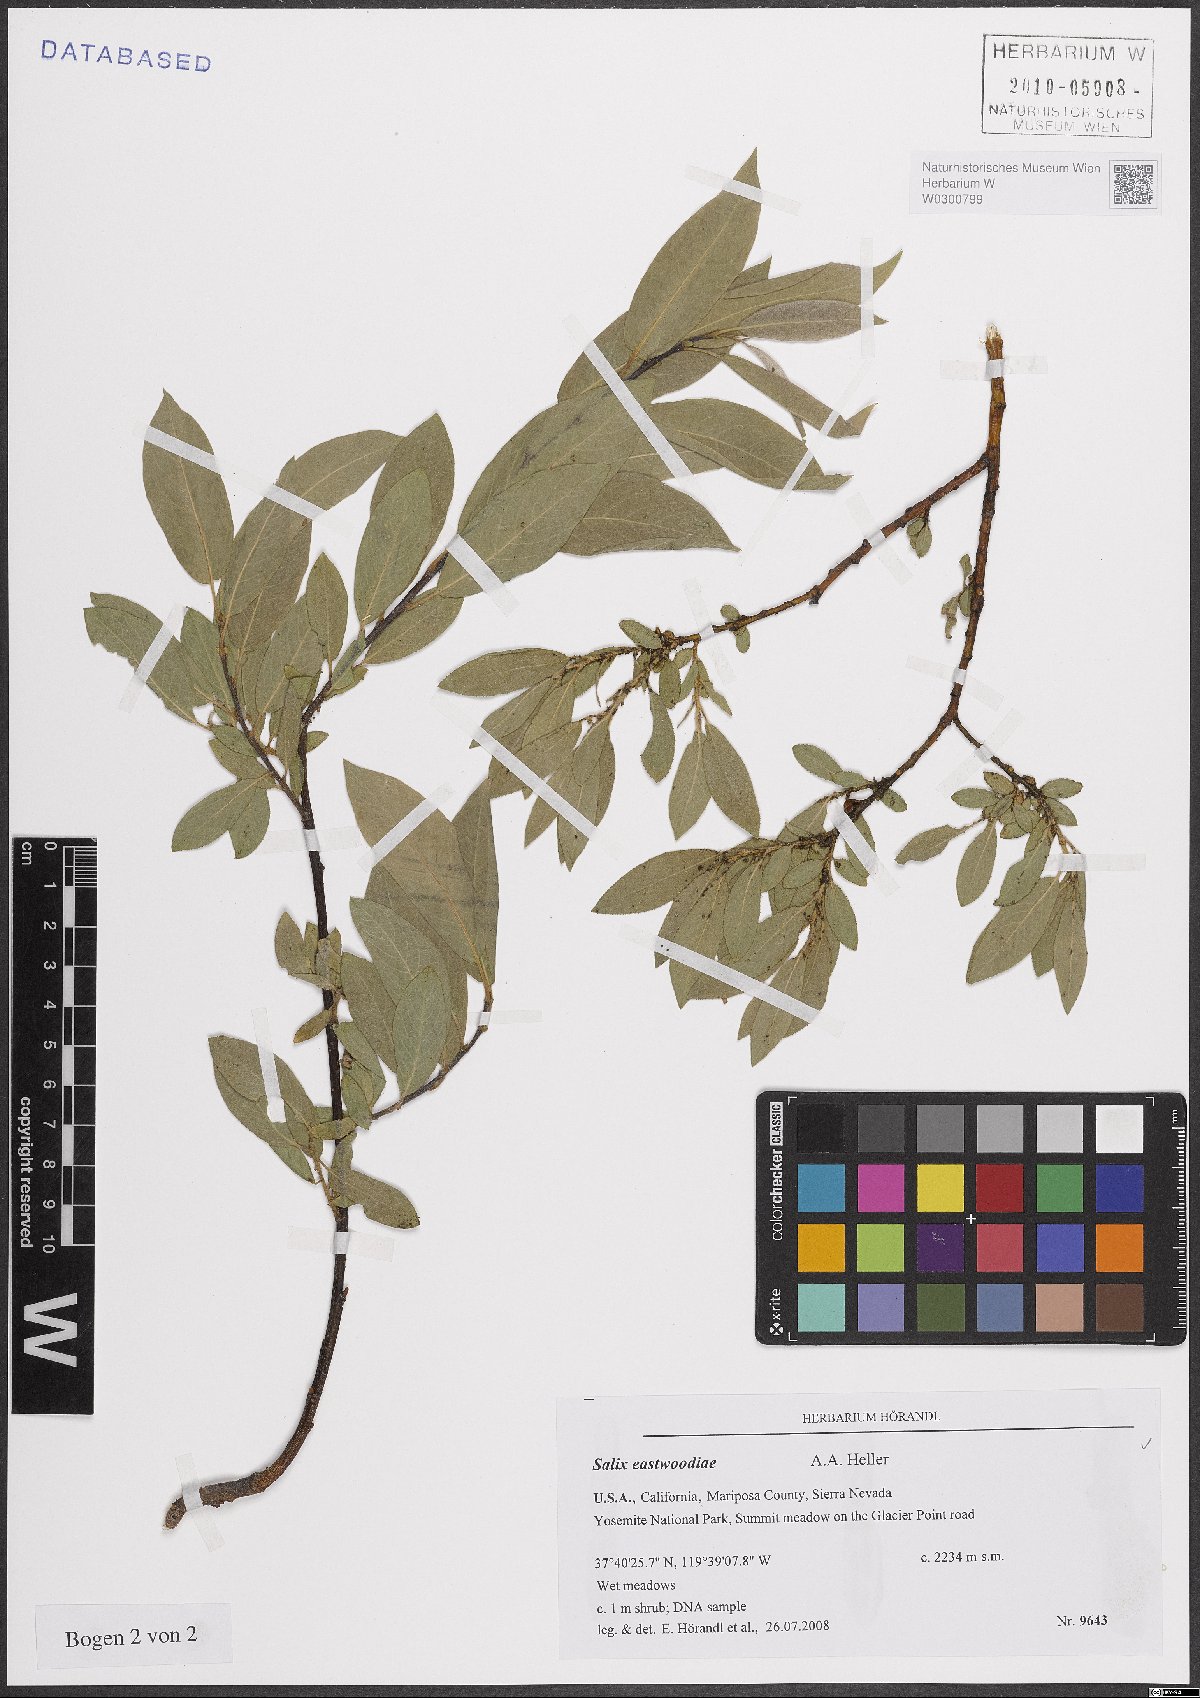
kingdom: Plantae
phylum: Tracheophyta
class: Magnoliopsida
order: Malpighiales
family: Salicaceae
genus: Salix
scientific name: Salix eastwoodiae
